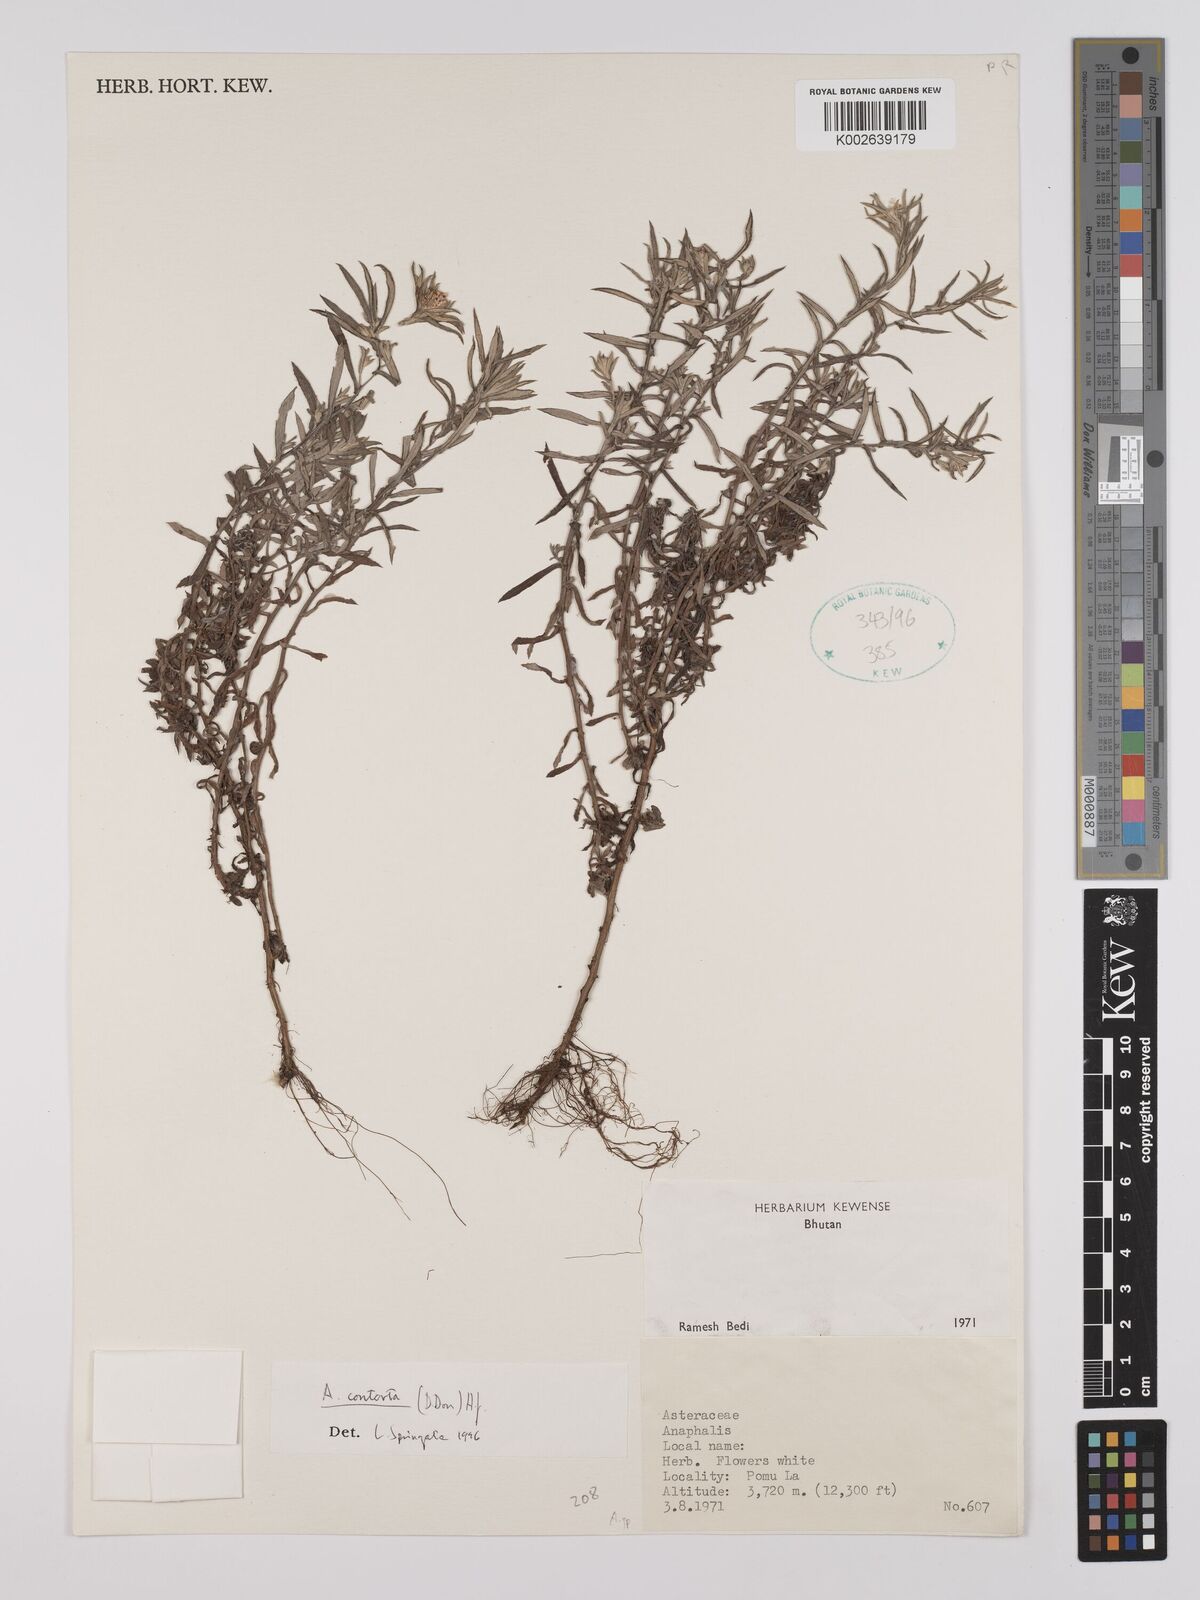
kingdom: Plantae
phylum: Tracheophyta
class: Magnoliopsida
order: Asterales
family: Asteraceae
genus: Anaphalis
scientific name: Anaphalis contorta
